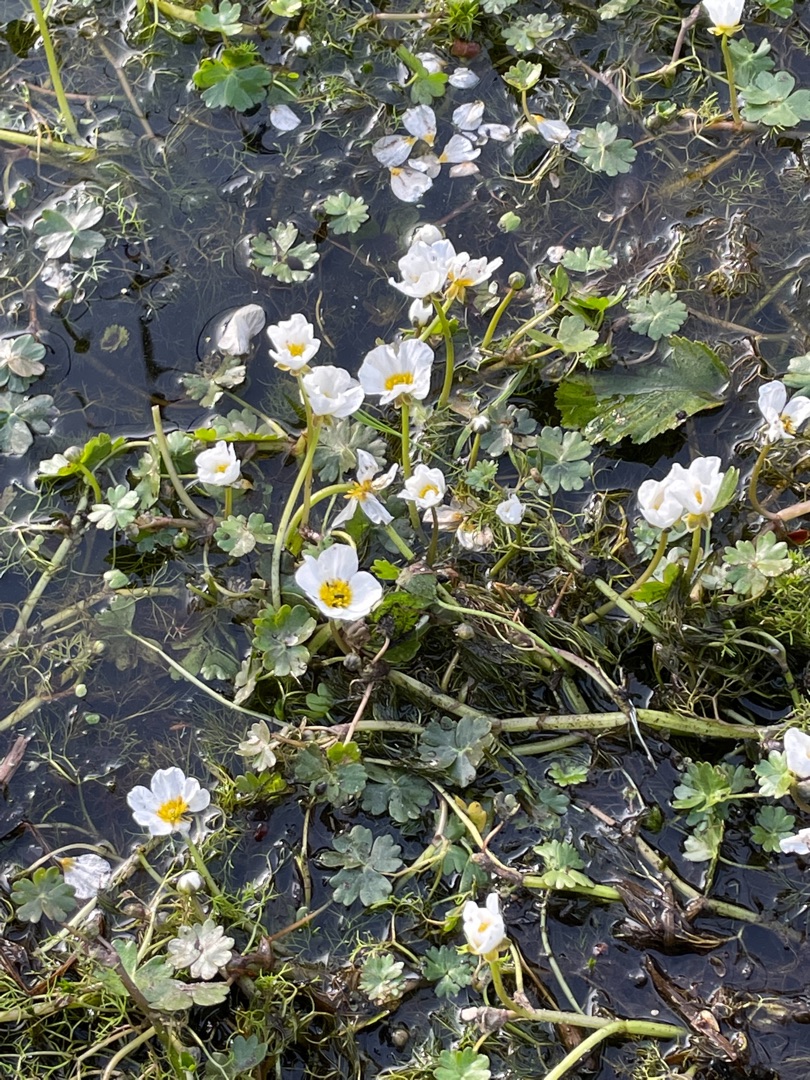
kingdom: Plantae
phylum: Tracheophyta
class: Magnoliopsida
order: Ranunculales
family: Ranunculaceae
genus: Ranunculus
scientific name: Ranunculus peltatus
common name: Storblomstret vandranunkel
